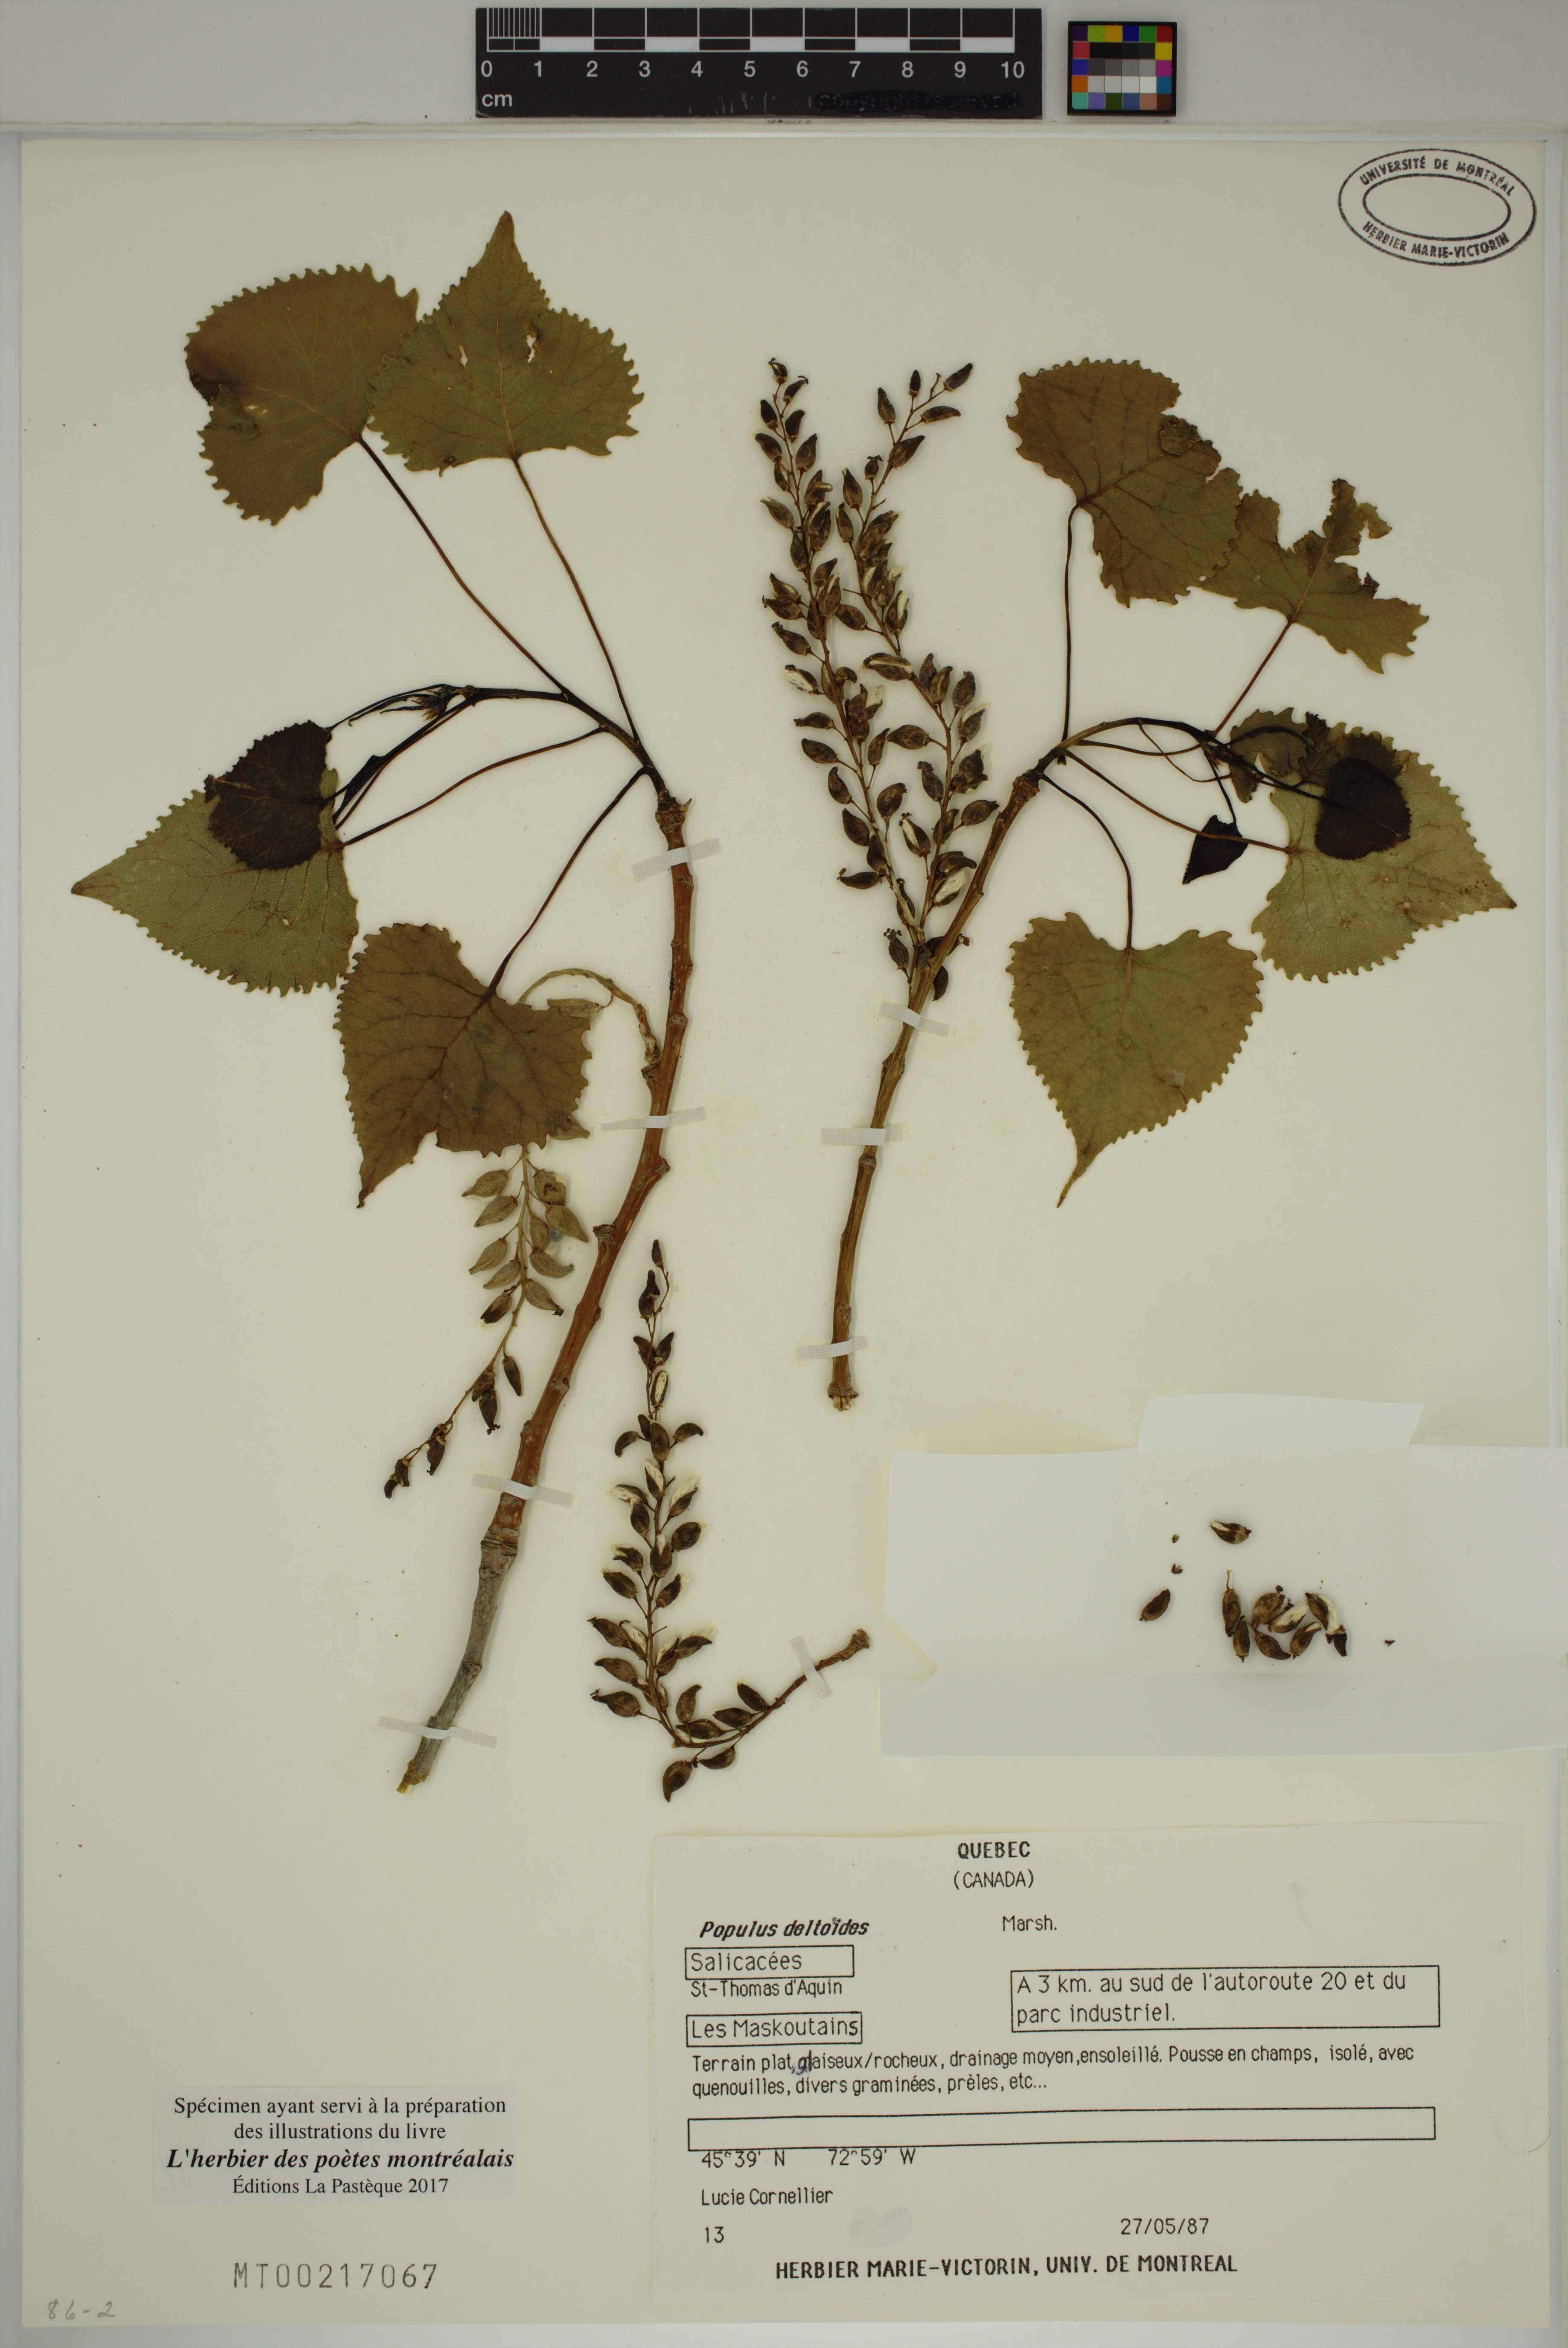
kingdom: Plantae
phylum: Tracheophyta
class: Magnoliopsida
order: Malpighiales
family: Salicaceae
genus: Populus
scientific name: Populus deltoides
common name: Eastern cottonwood
